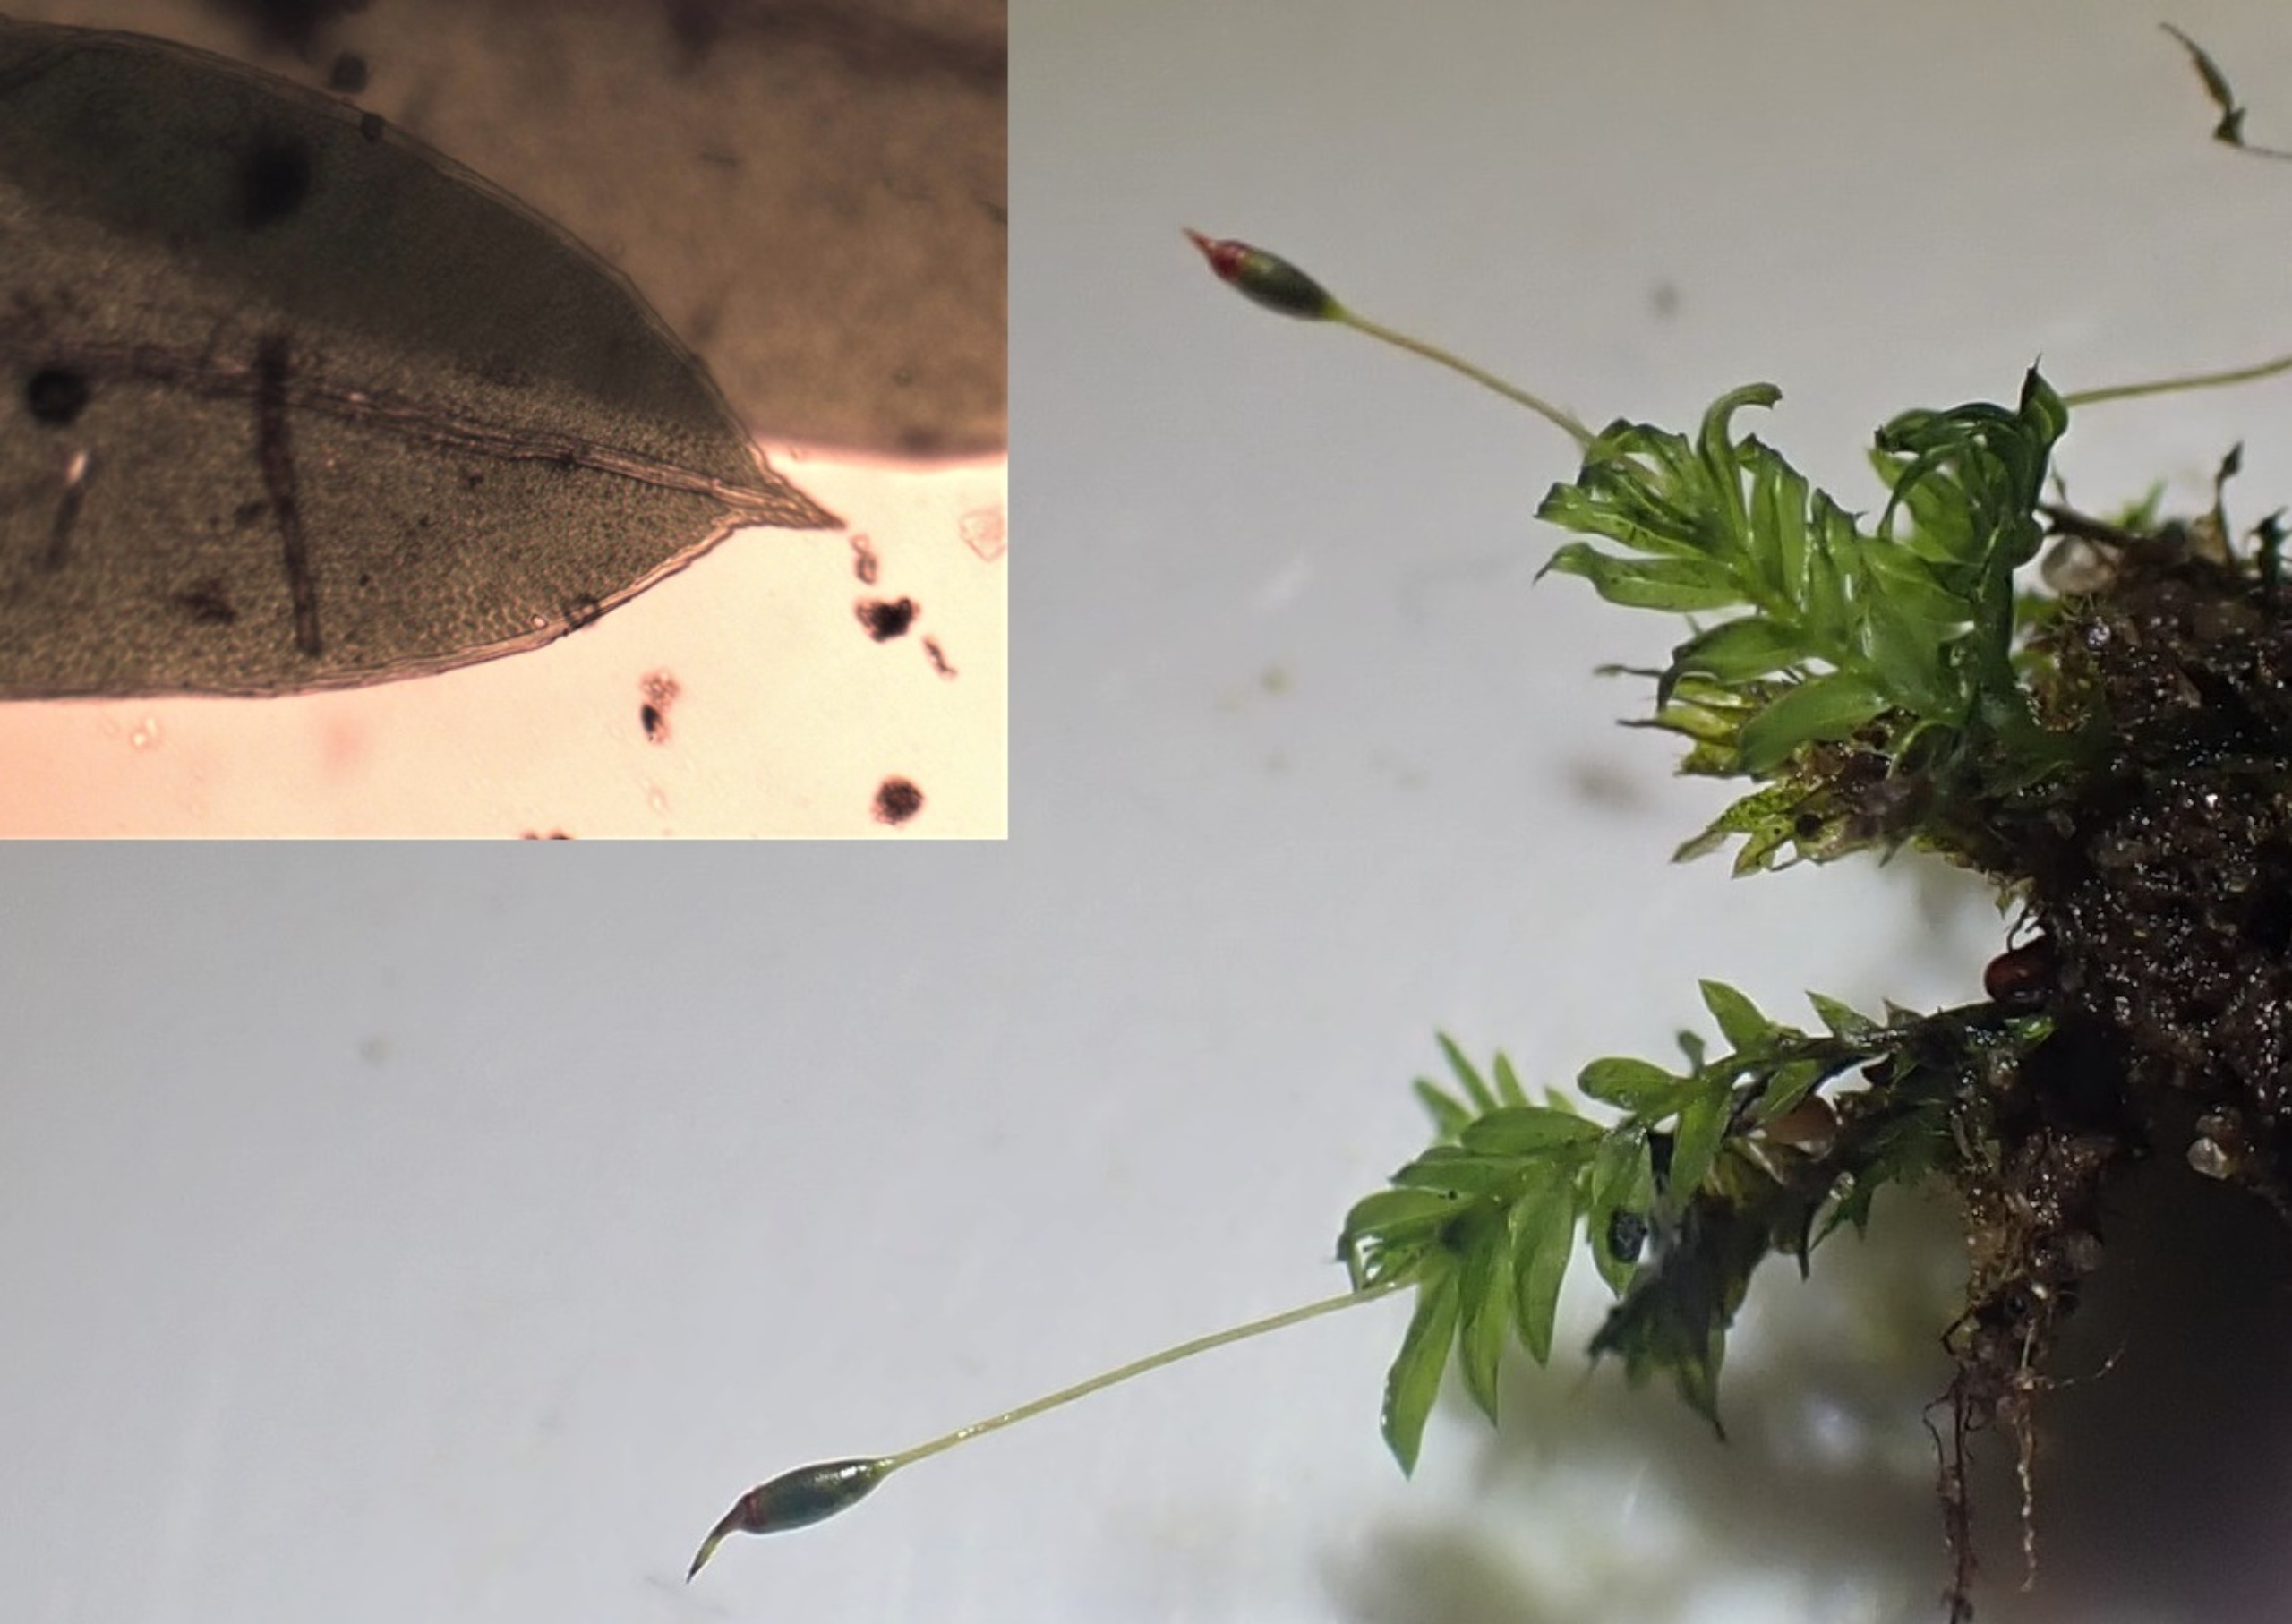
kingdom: Plantae
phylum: Bryophyta
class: Bryopsida
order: Dicranales
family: Fissidentaceae
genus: Fissidens
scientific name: Fissidens bryoides
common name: Top-rademos
